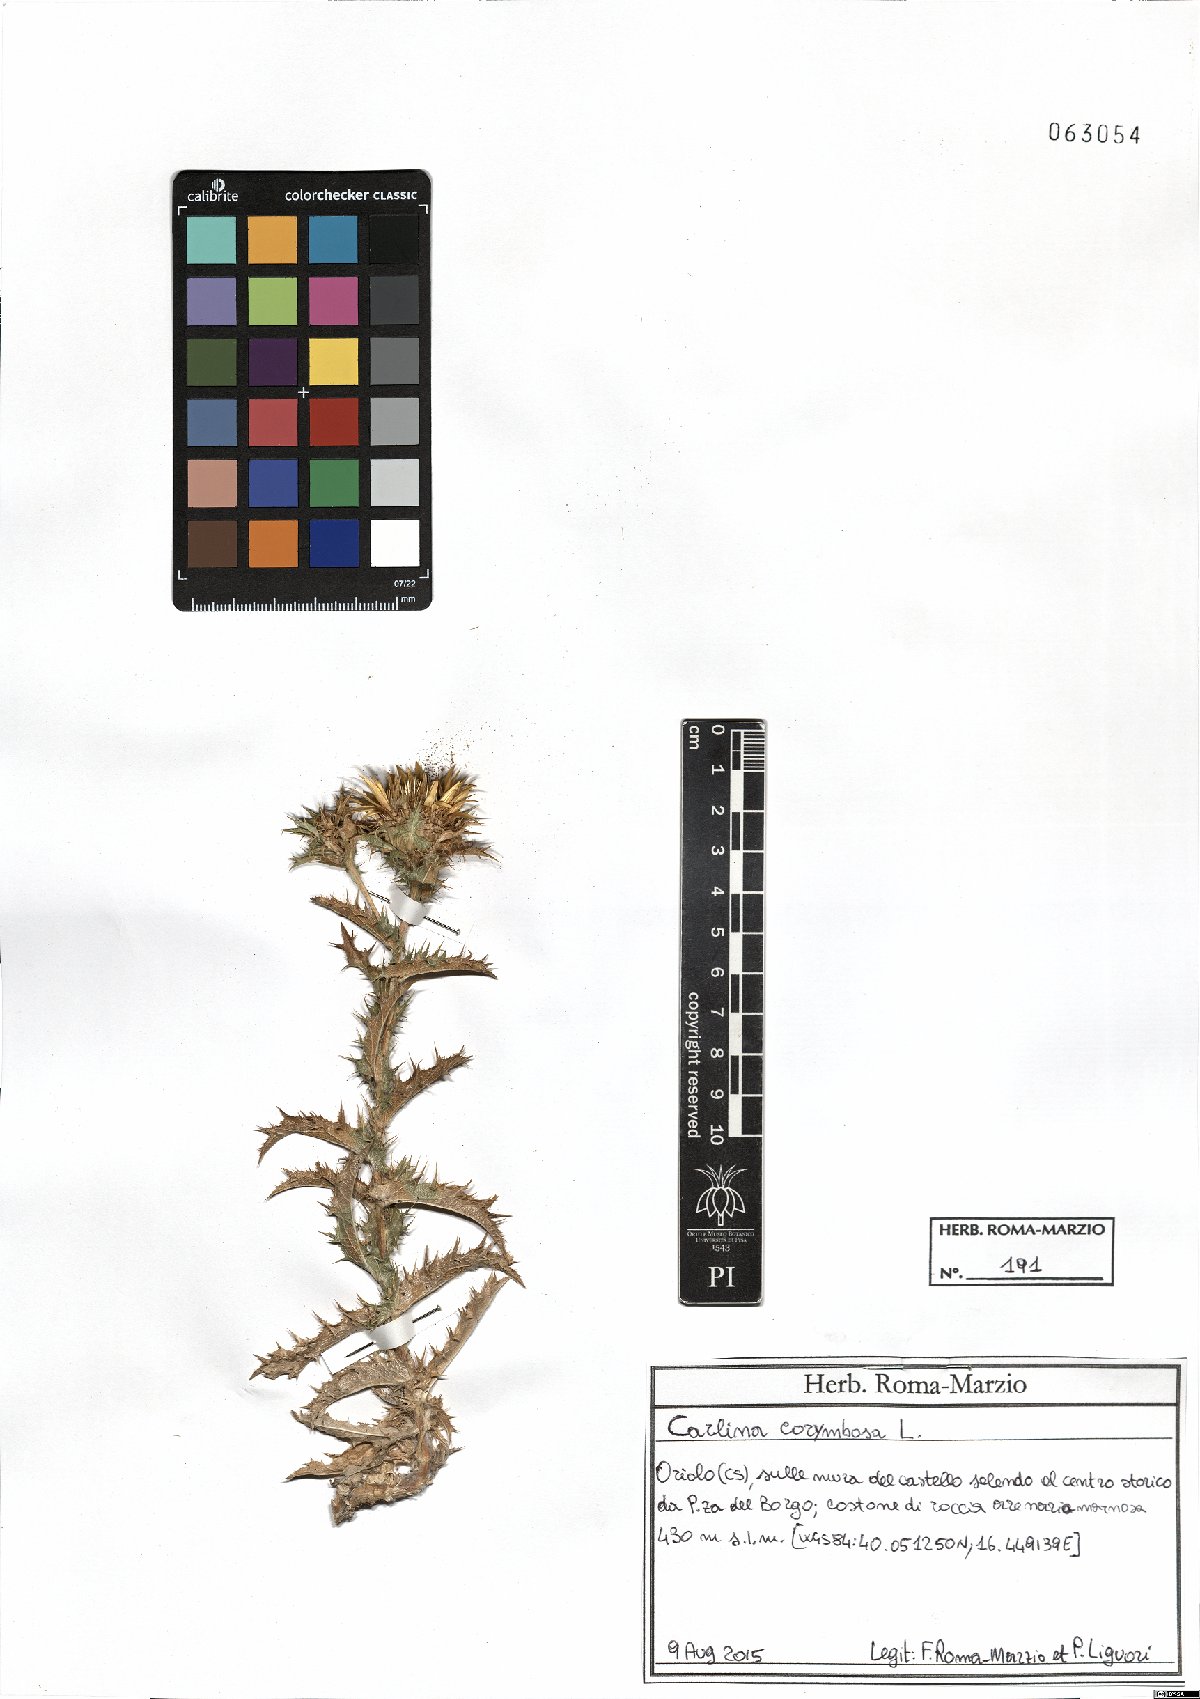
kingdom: Plantae
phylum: Tracheophyta
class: Magnoliopsida
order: Asterales
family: Asteraceae
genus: Carlina
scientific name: Carlina corymbosa
